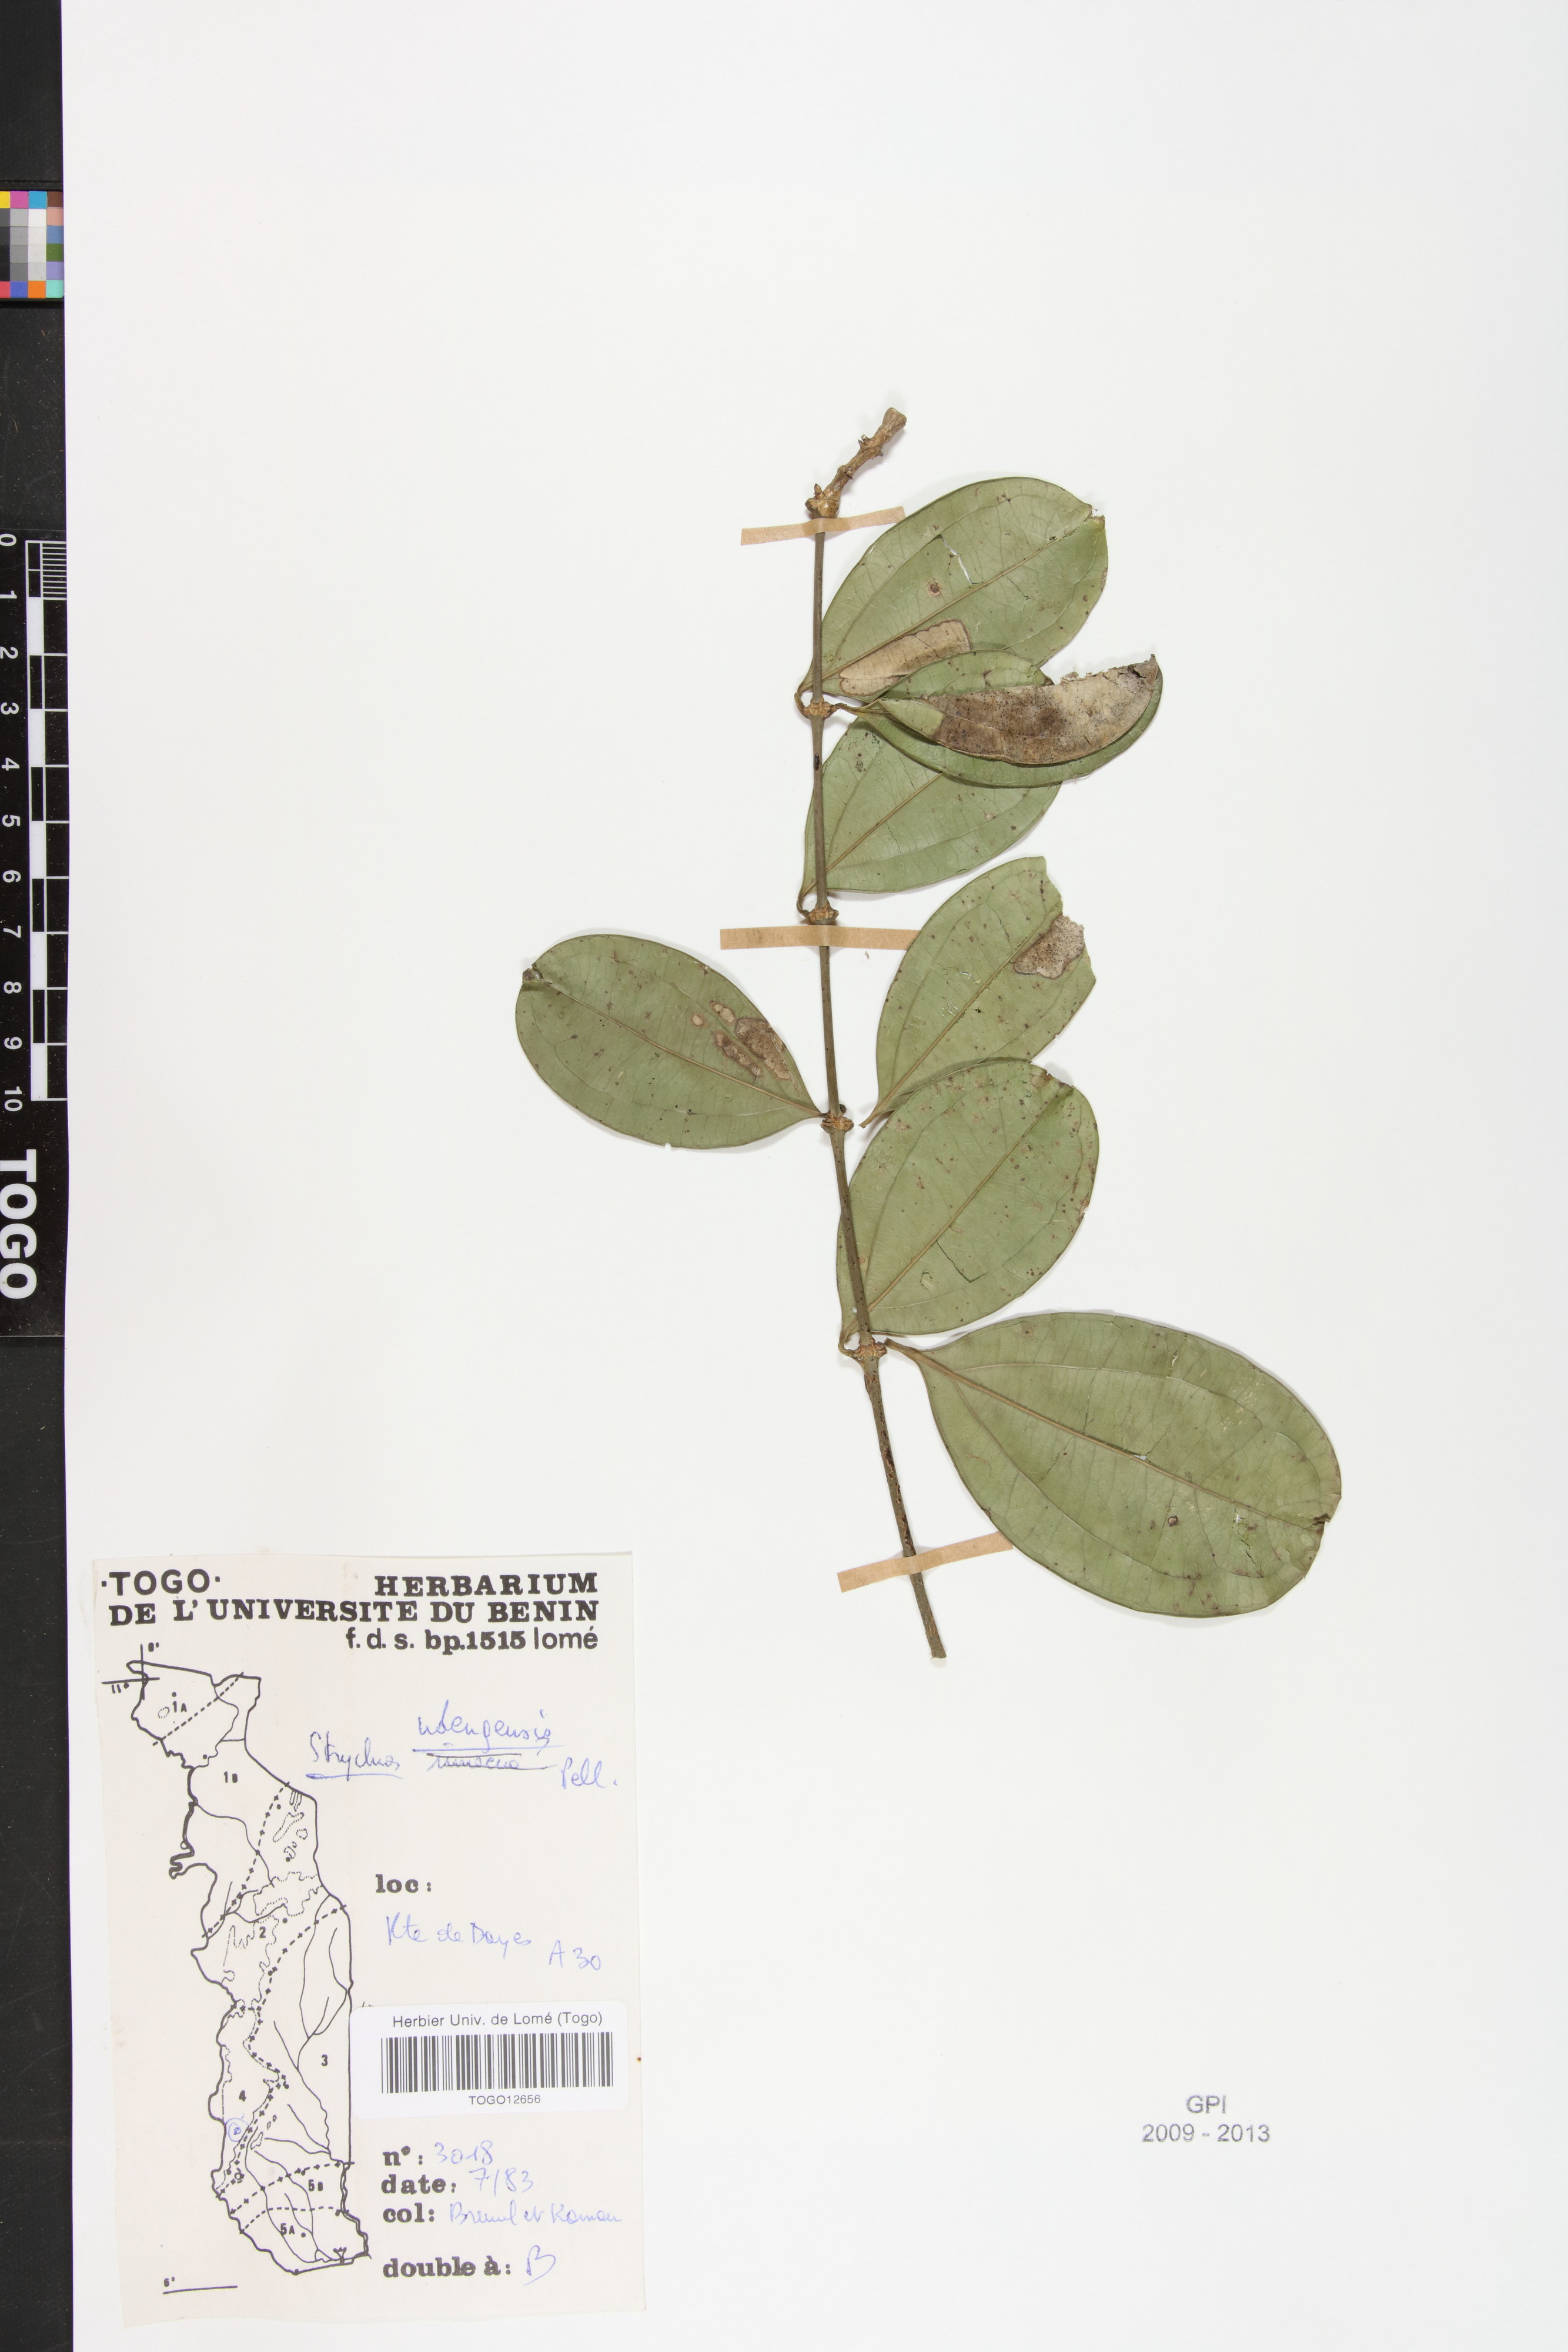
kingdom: Plantae
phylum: Tracheophyta
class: Magnoliopsida
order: Gentianales
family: Loganiaceae
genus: Strychnos
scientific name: Strychnos ndengensis
